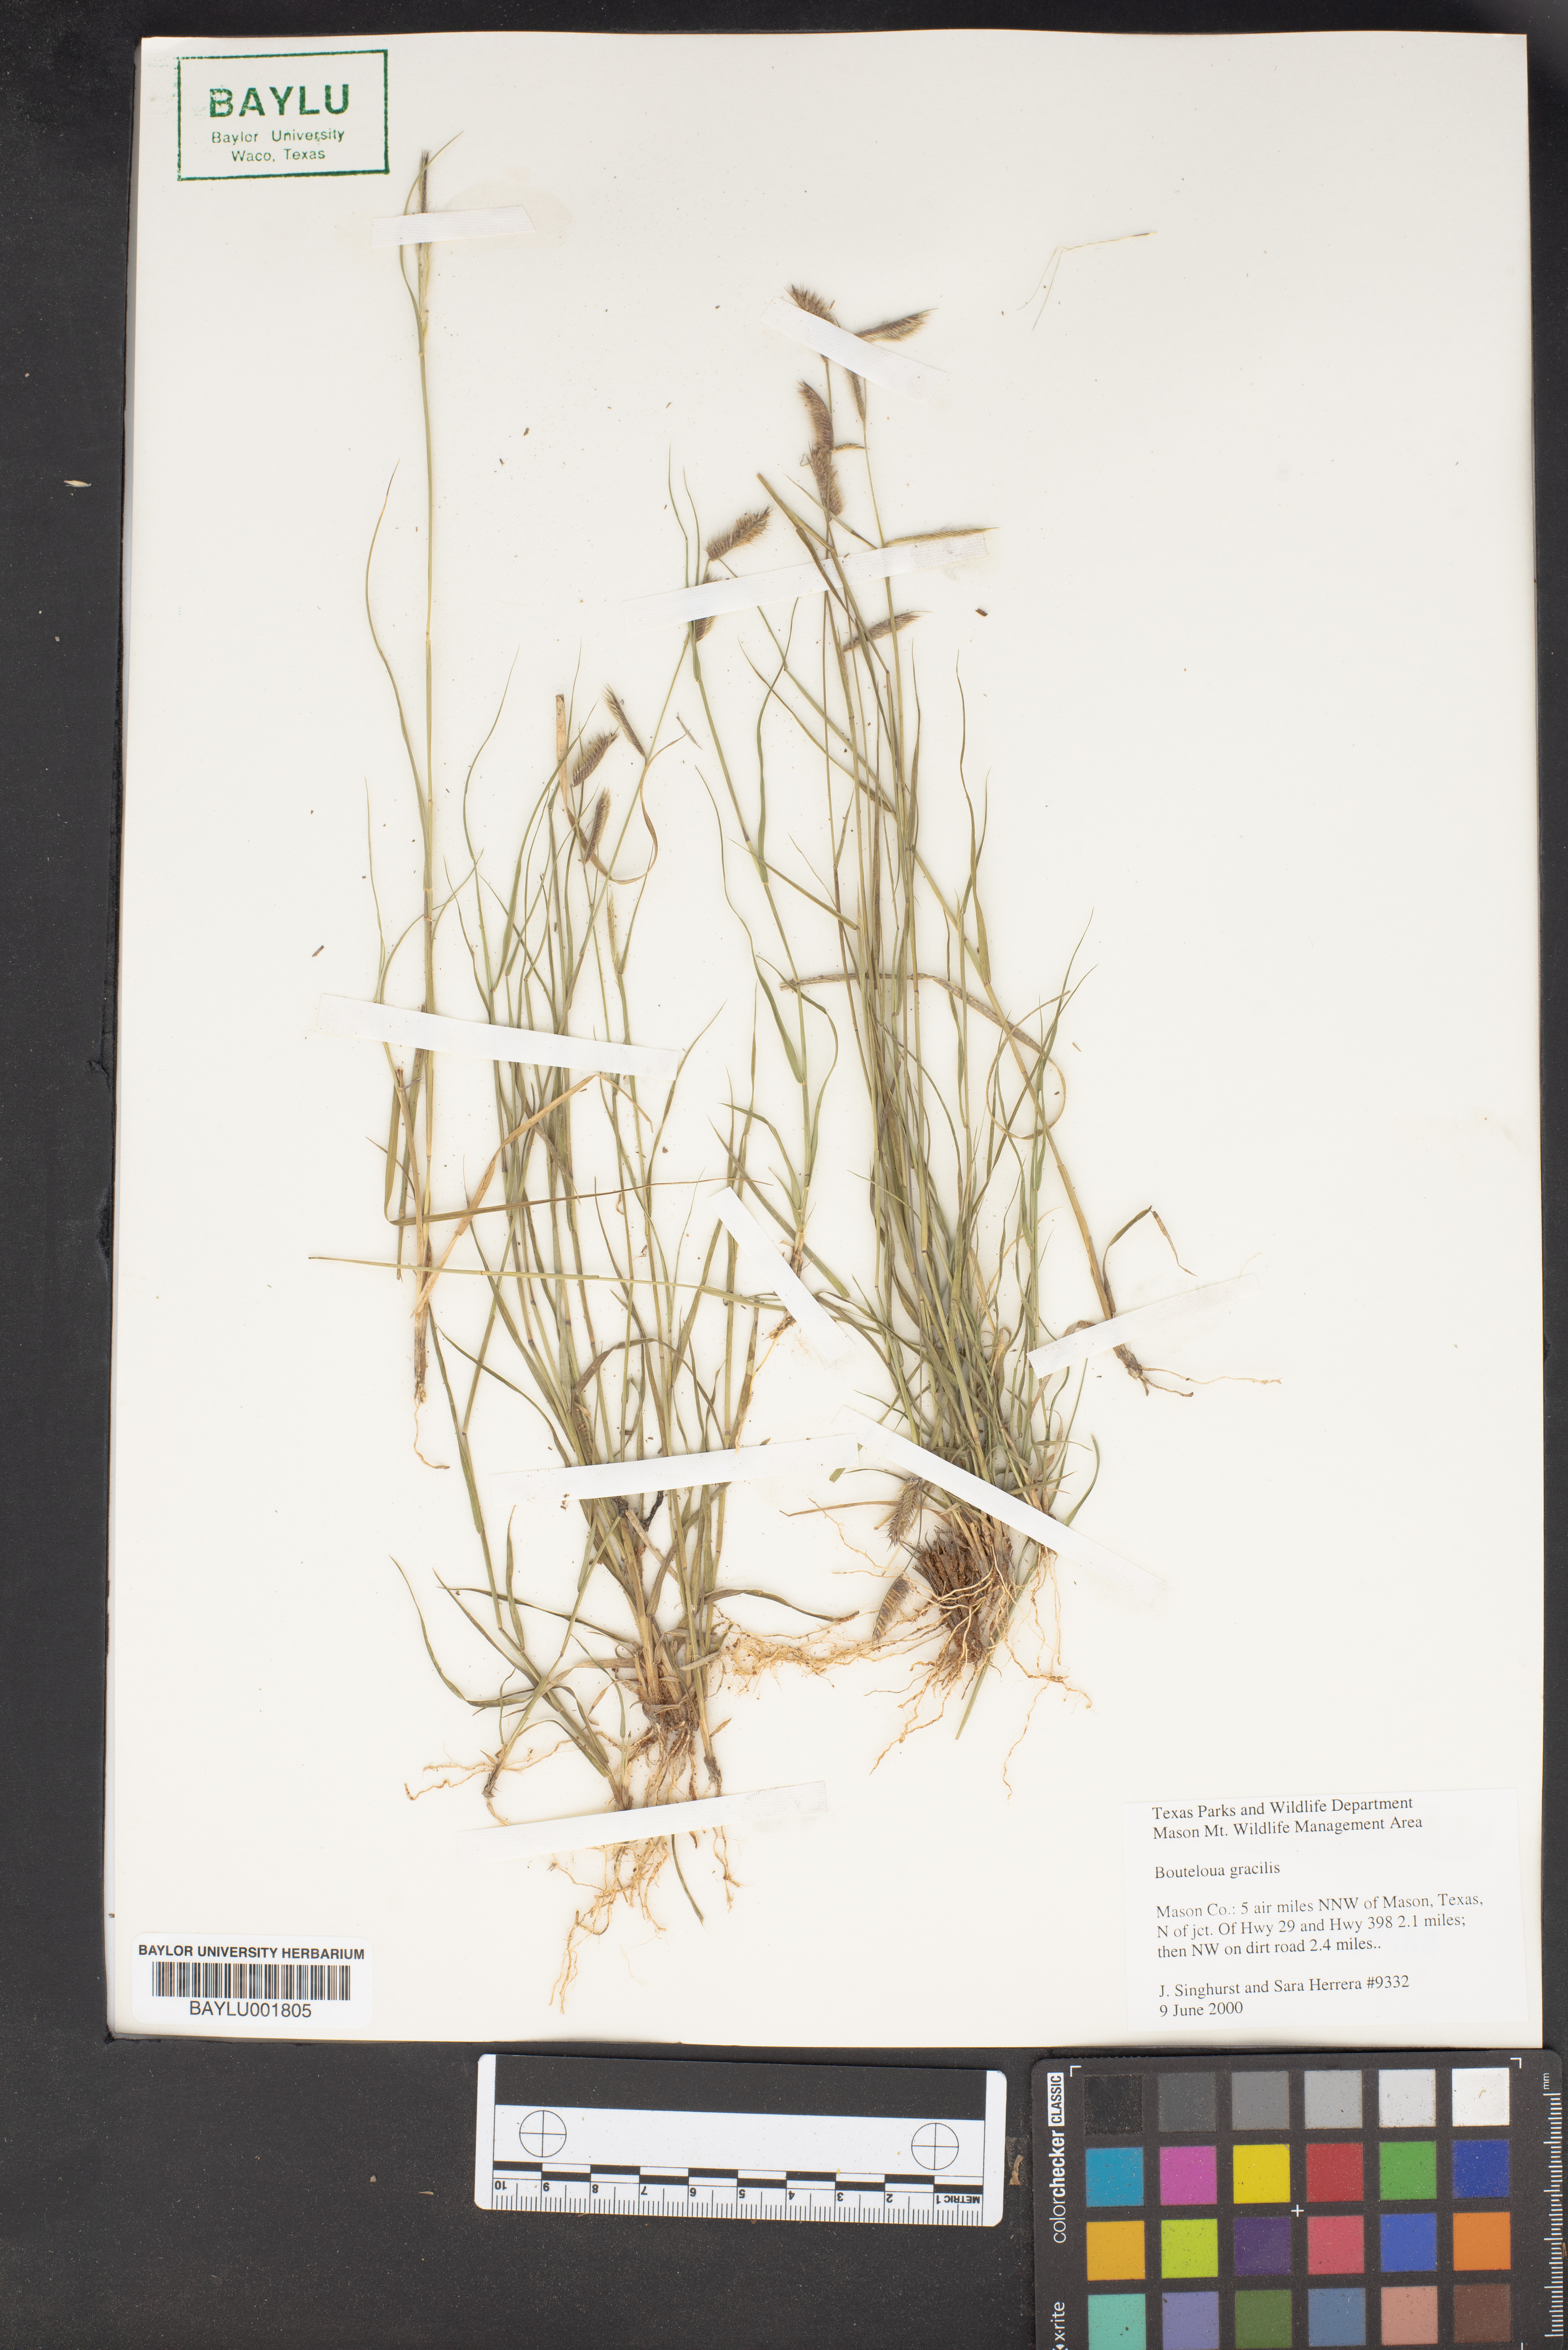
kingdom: Plantae
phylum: Tracheophyta
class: Liliopsida
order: Poales
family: Poaceae
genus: Bouteloua
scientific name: Bouteloua gracilis
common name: Blue grama
